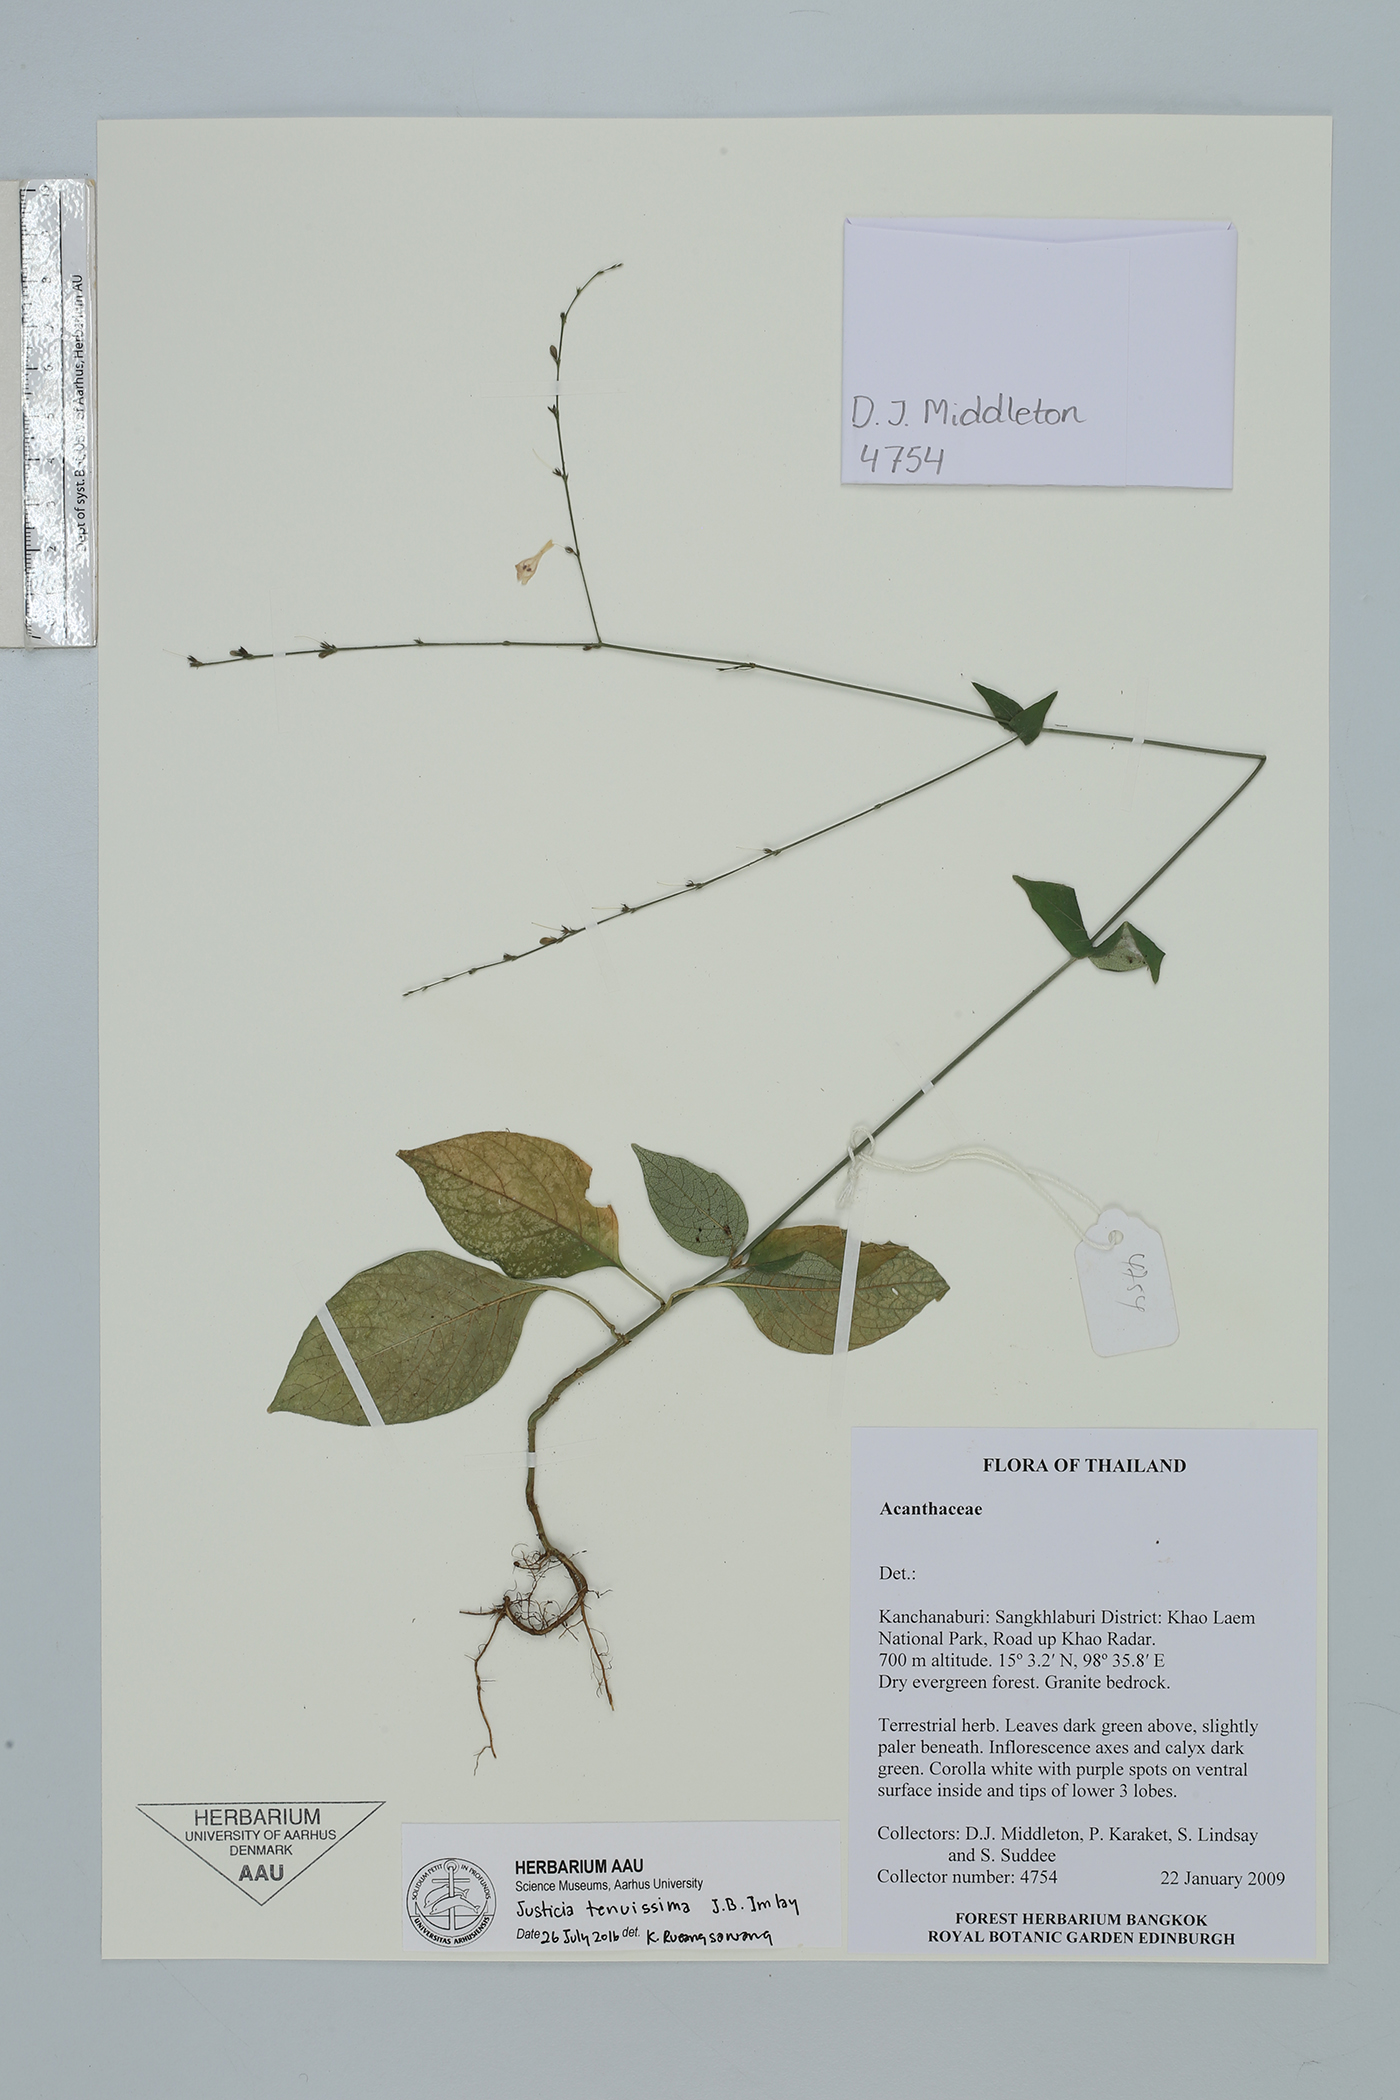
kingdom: Plantae
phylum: Tracheophyta
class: Magnoliopsida
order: Lamiales
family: Acanthaceae
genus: Justicia
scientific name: Justicia tenuissima
